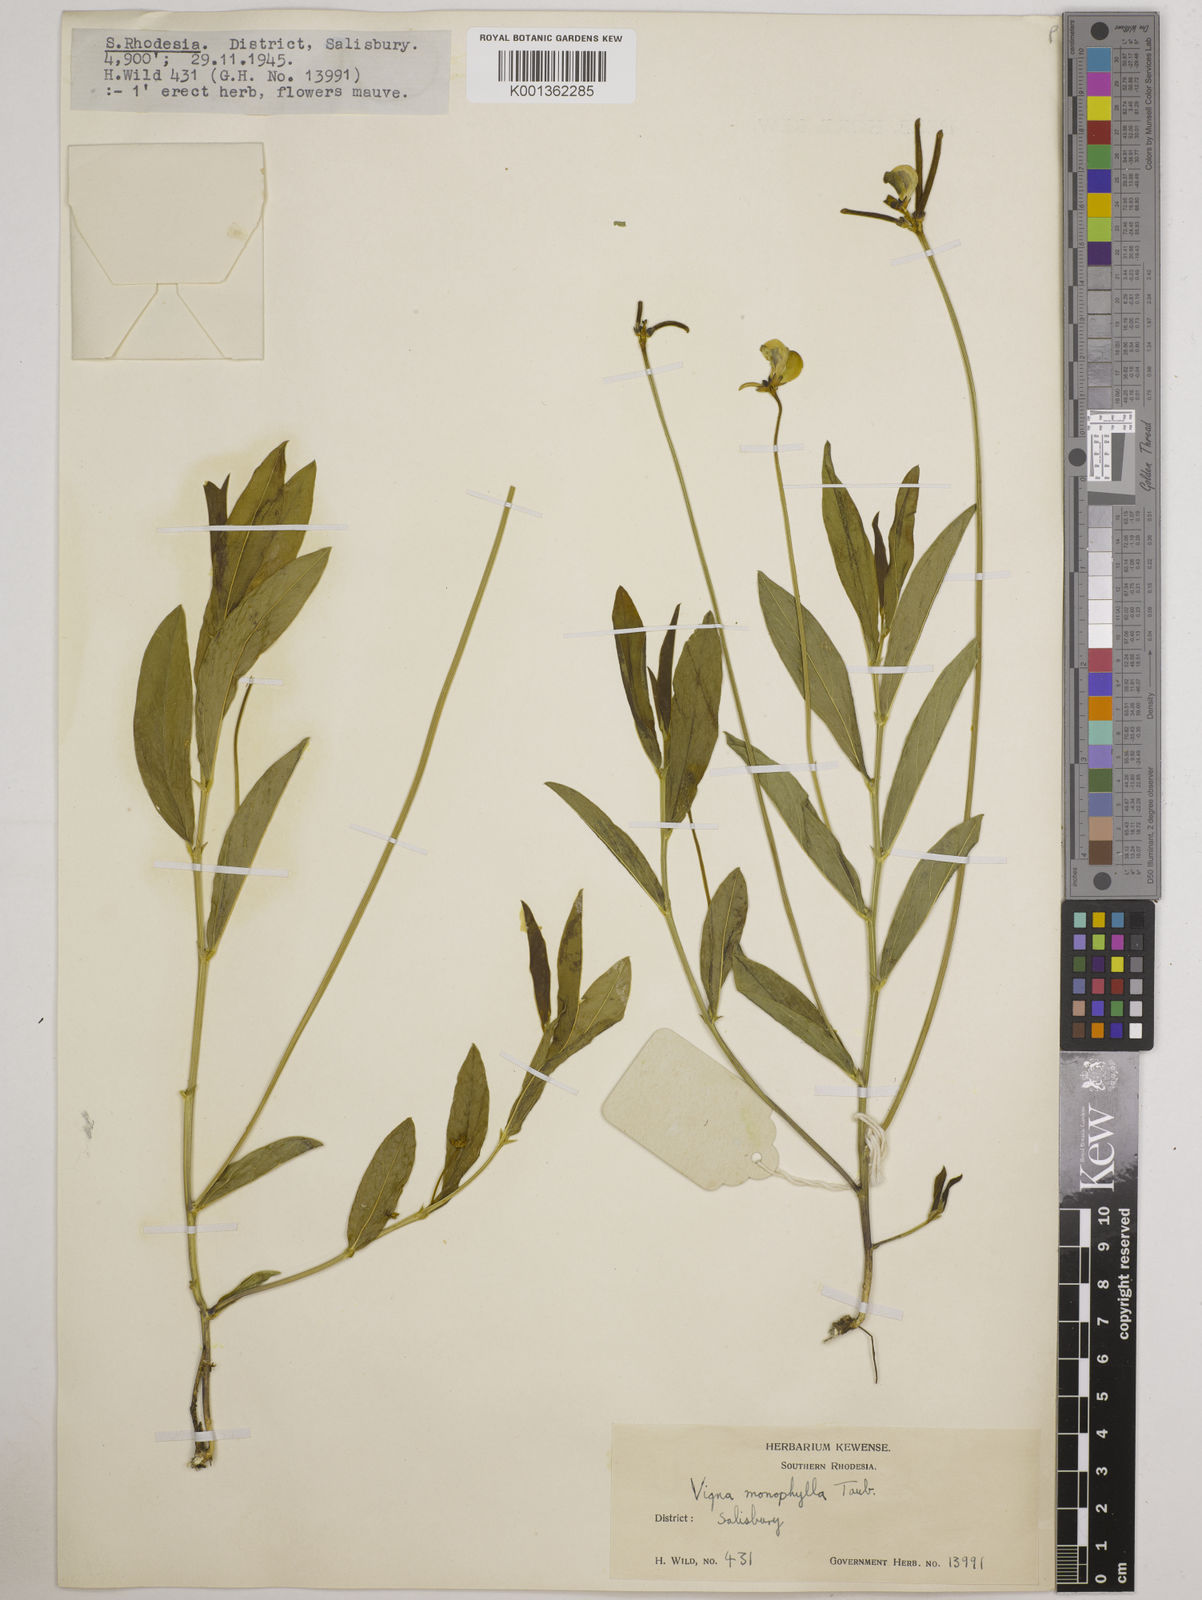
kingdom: Plantae
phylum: Tracheophyta
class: Magnoliopsida
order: Fabales
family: Fabaceae
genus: Vigna
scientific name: Vigna monophylla
